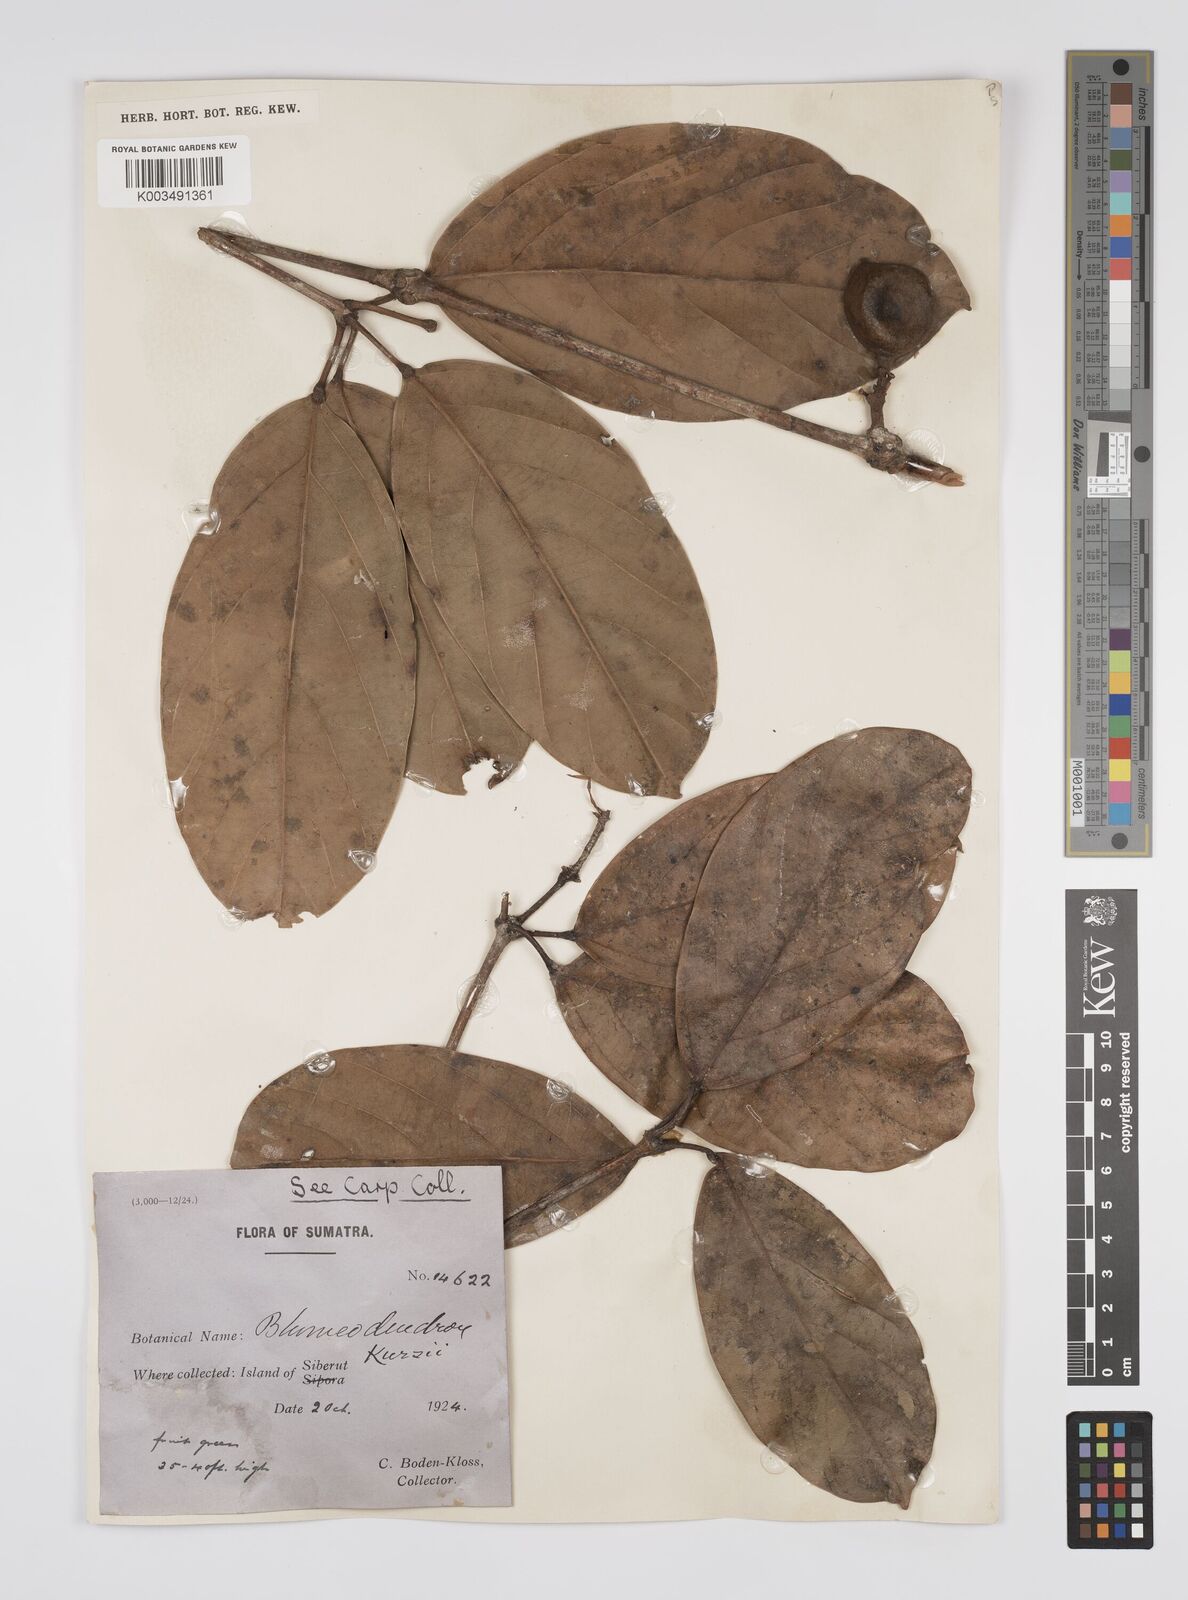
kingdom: Plantae
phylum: Tracheophyta
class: Magnoliopsida
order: Malpighiales
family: Euphorbiaceae
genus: Blumeodendron
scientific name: Blumeodendron kurzii
